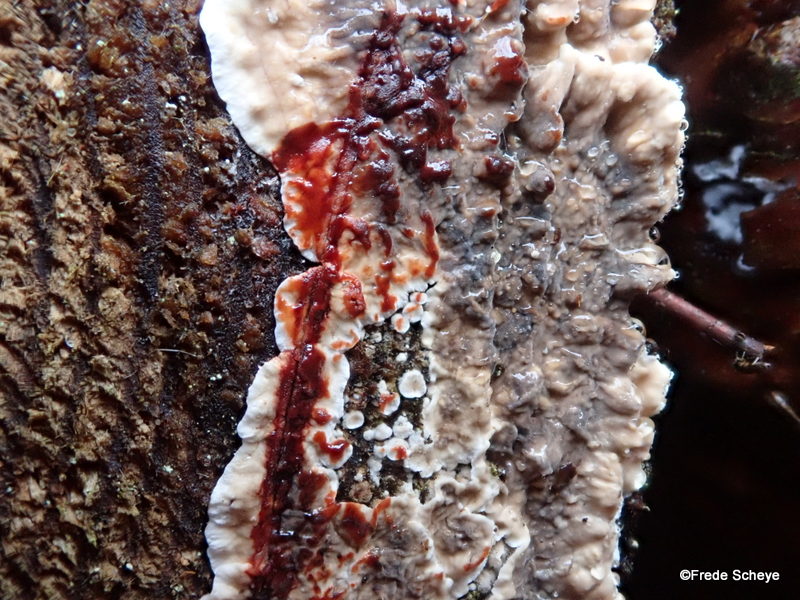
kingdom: Fungi
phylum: Basidiomycota
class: Agaricomycetes
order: Russulales
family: Stereaceae
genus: Stereum
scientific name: Stereum sanguinolentum
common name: blødende lædersvamp
